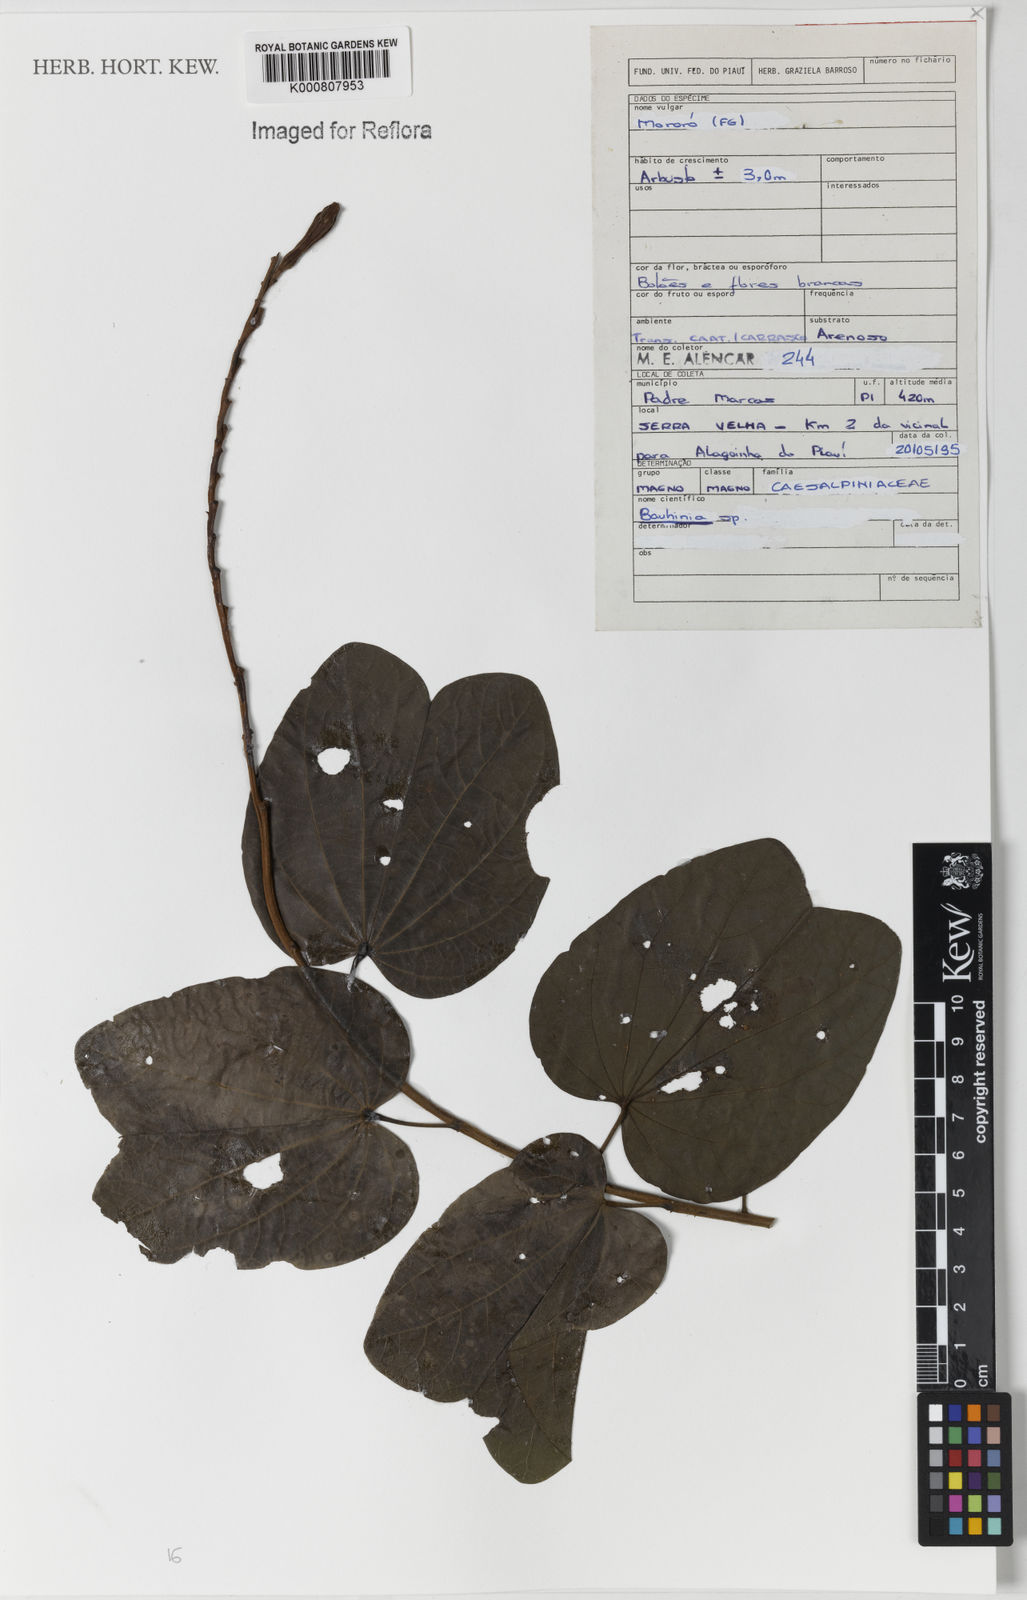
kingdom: Plantae
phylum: Tracheophyta
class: Magnoliopsida
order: Fabales
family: Fabaceae
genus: Bauhinia
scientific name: Bauhinia
